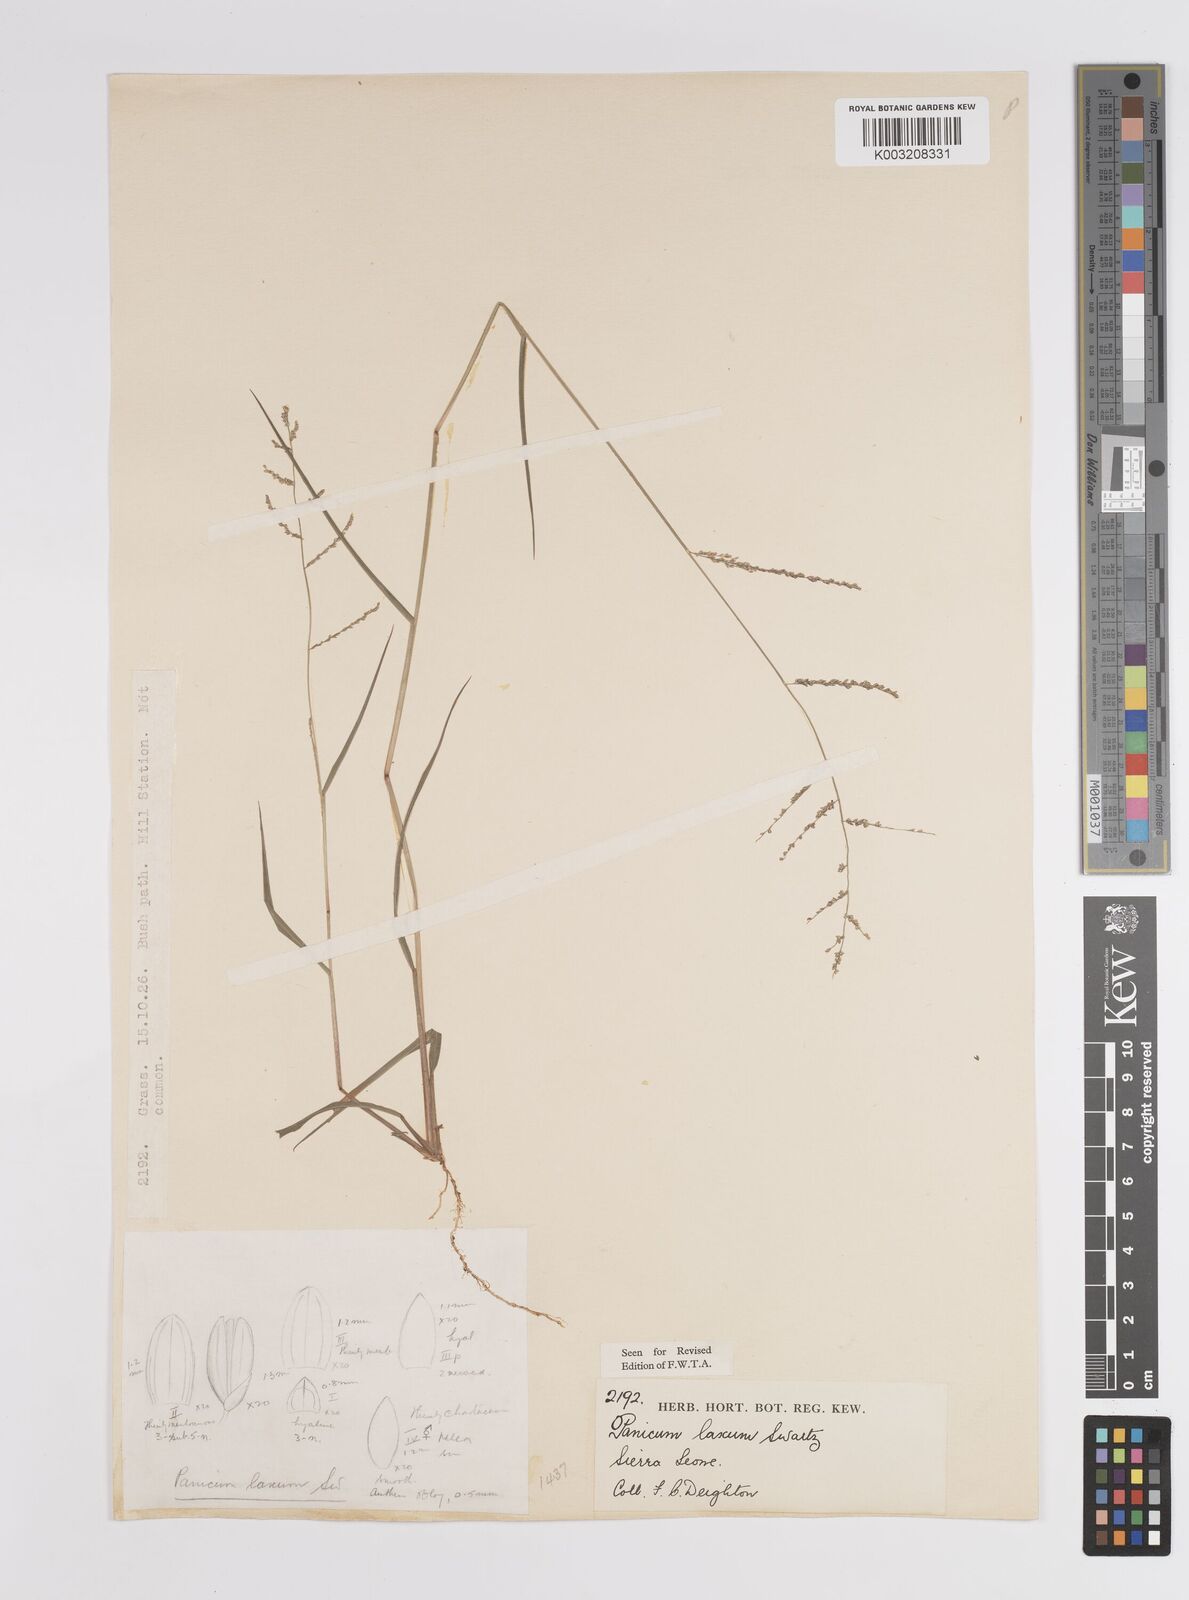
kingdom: Plantae
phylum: Tracheophyta
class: Liliopsida
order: Poales
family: Poaceae
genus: Steinchisma
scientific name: Steinchisma laxum
